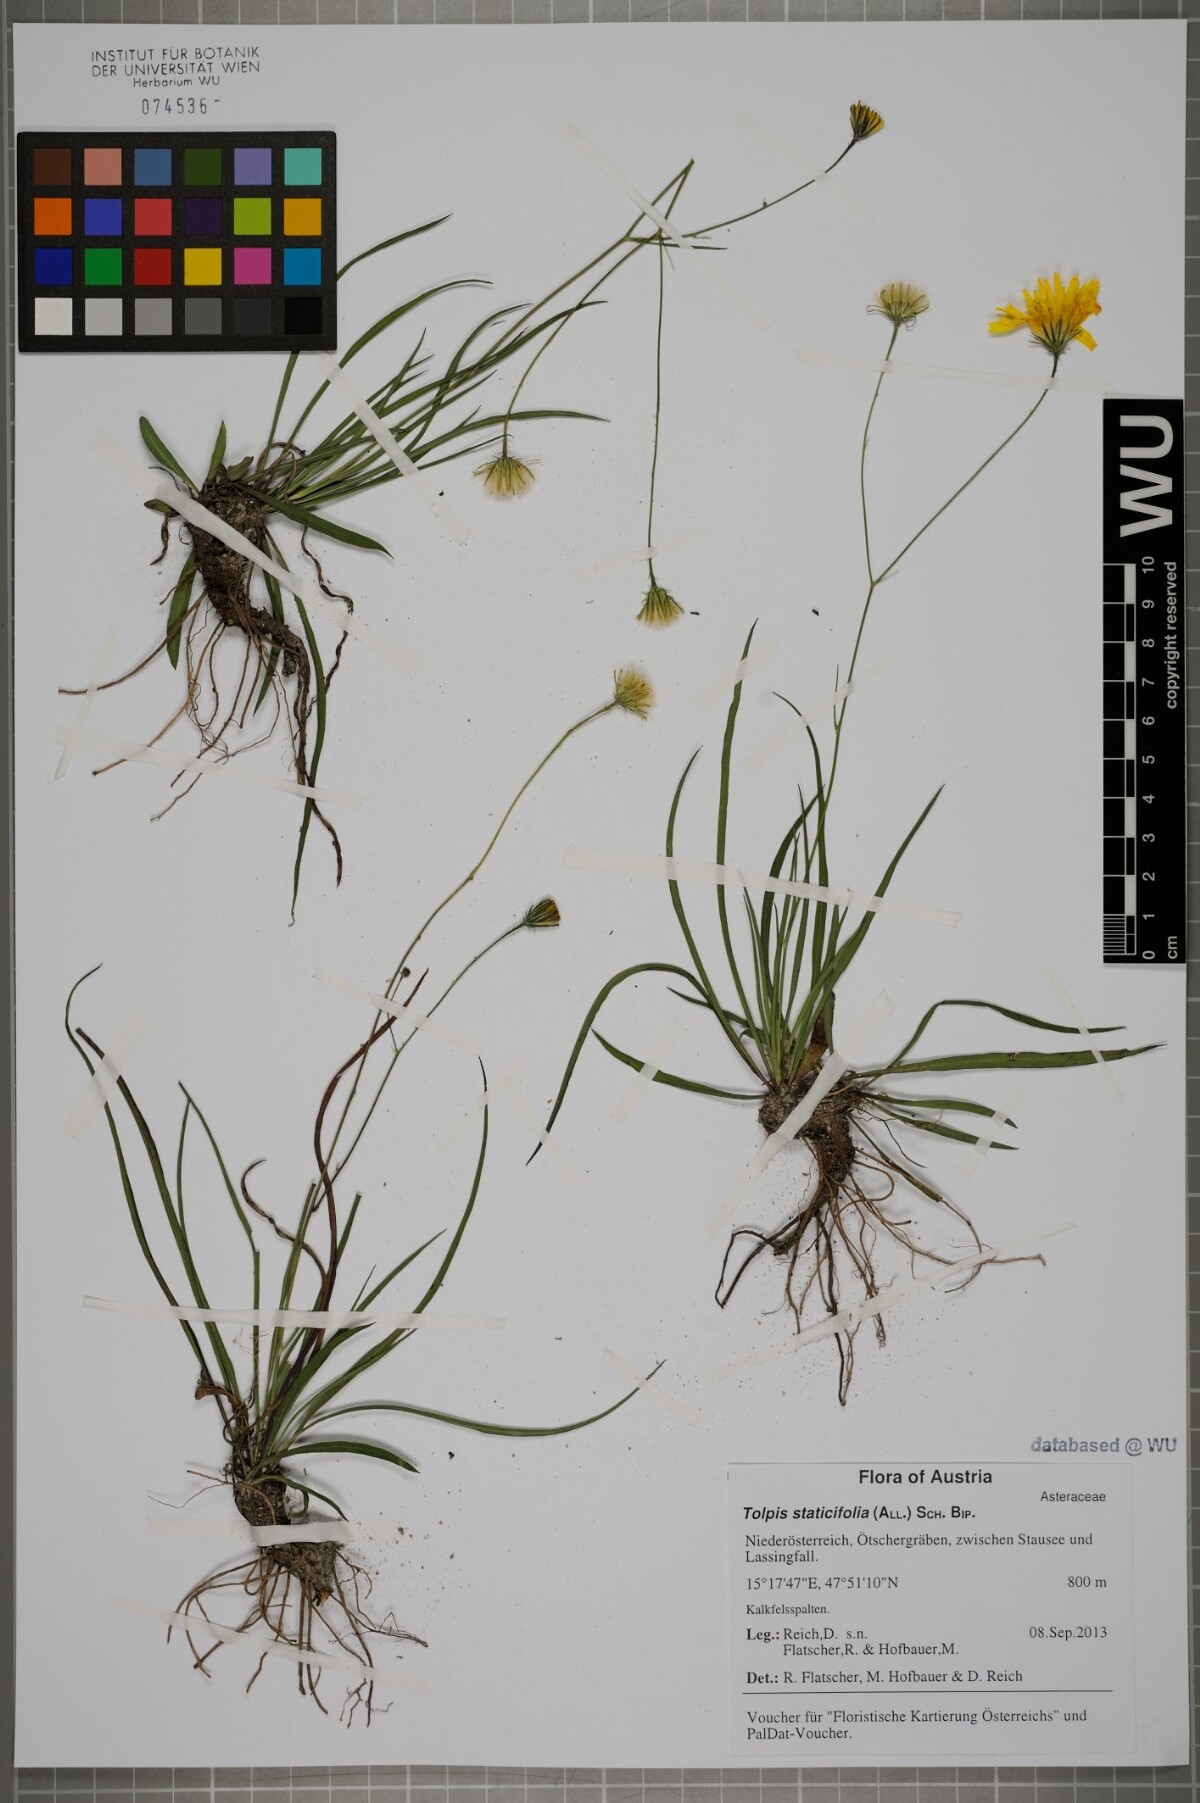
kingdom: Plantae
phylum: Tracheophyta
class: Magnoliopsida
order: Asterales
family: Asteraceae
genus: Tolpis
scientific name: Tolpis staticifolia
